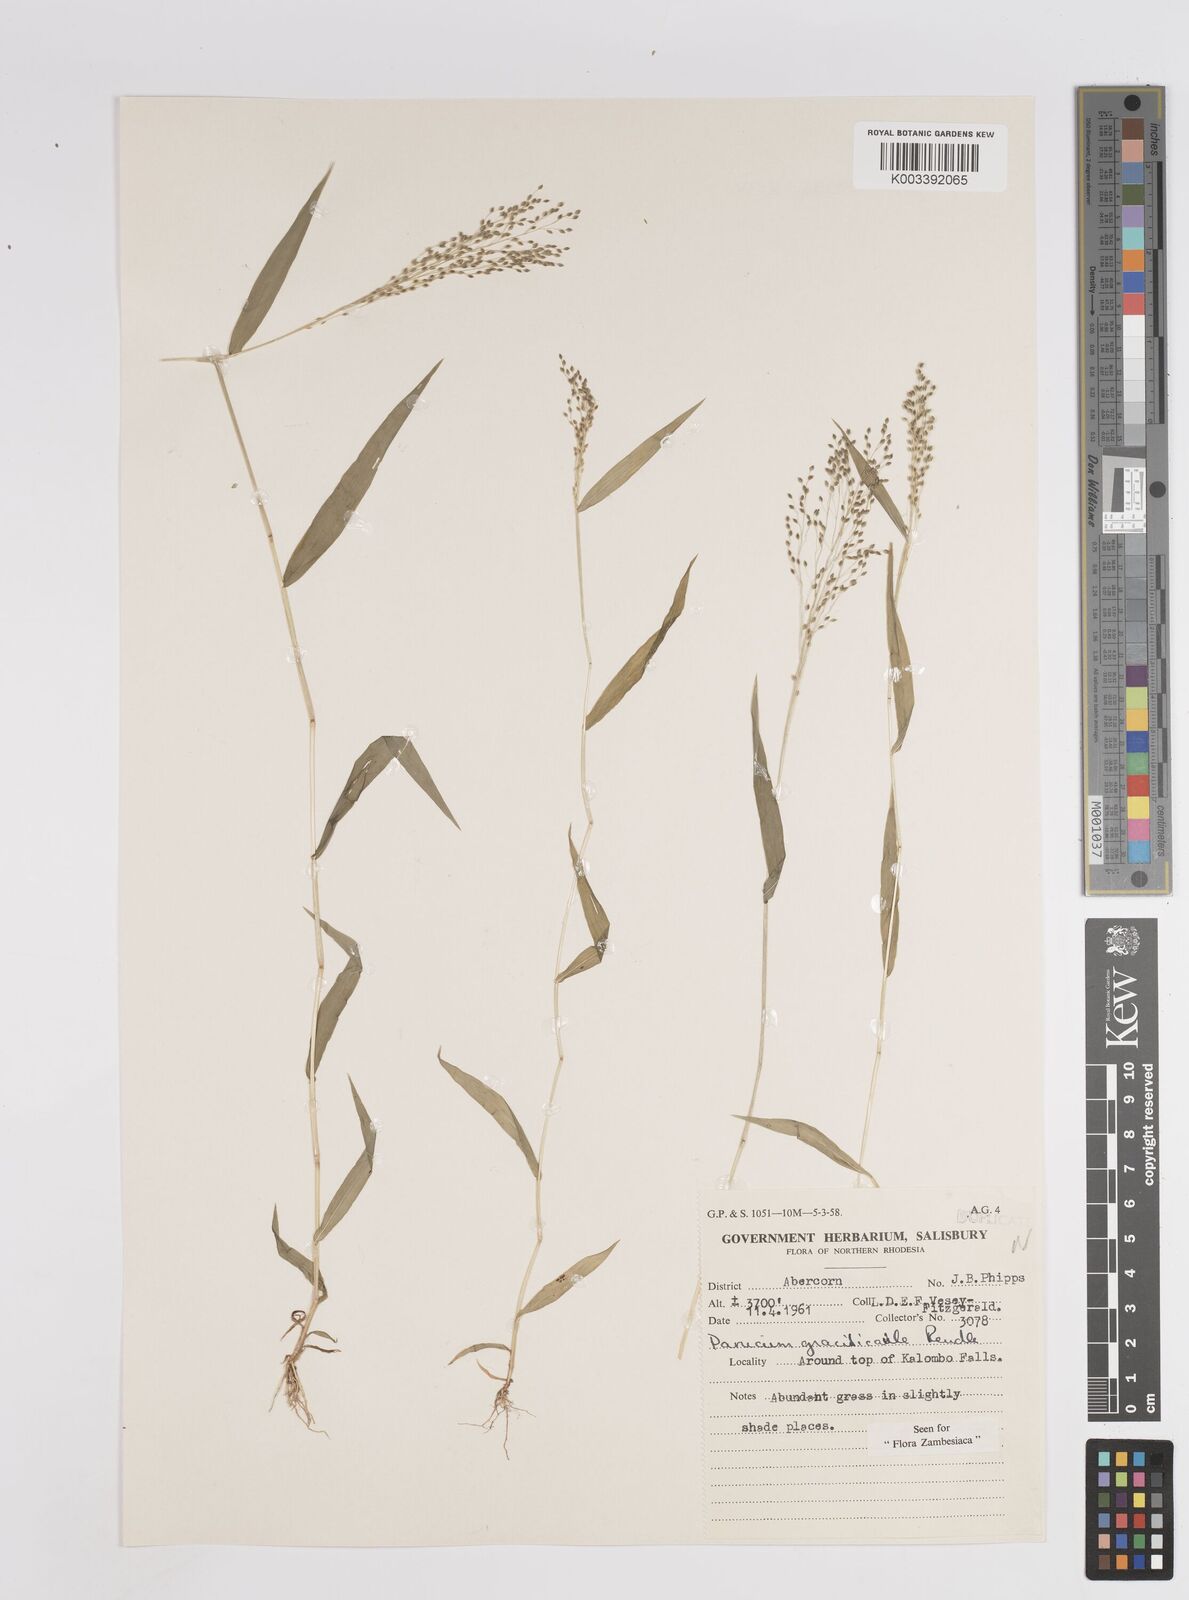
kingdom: Plantae
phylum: Tracheophyta
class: Liliopsida
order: Poales
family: Poaceae
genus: Trichanthecium
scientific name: Trichanthecium gracilicaule
